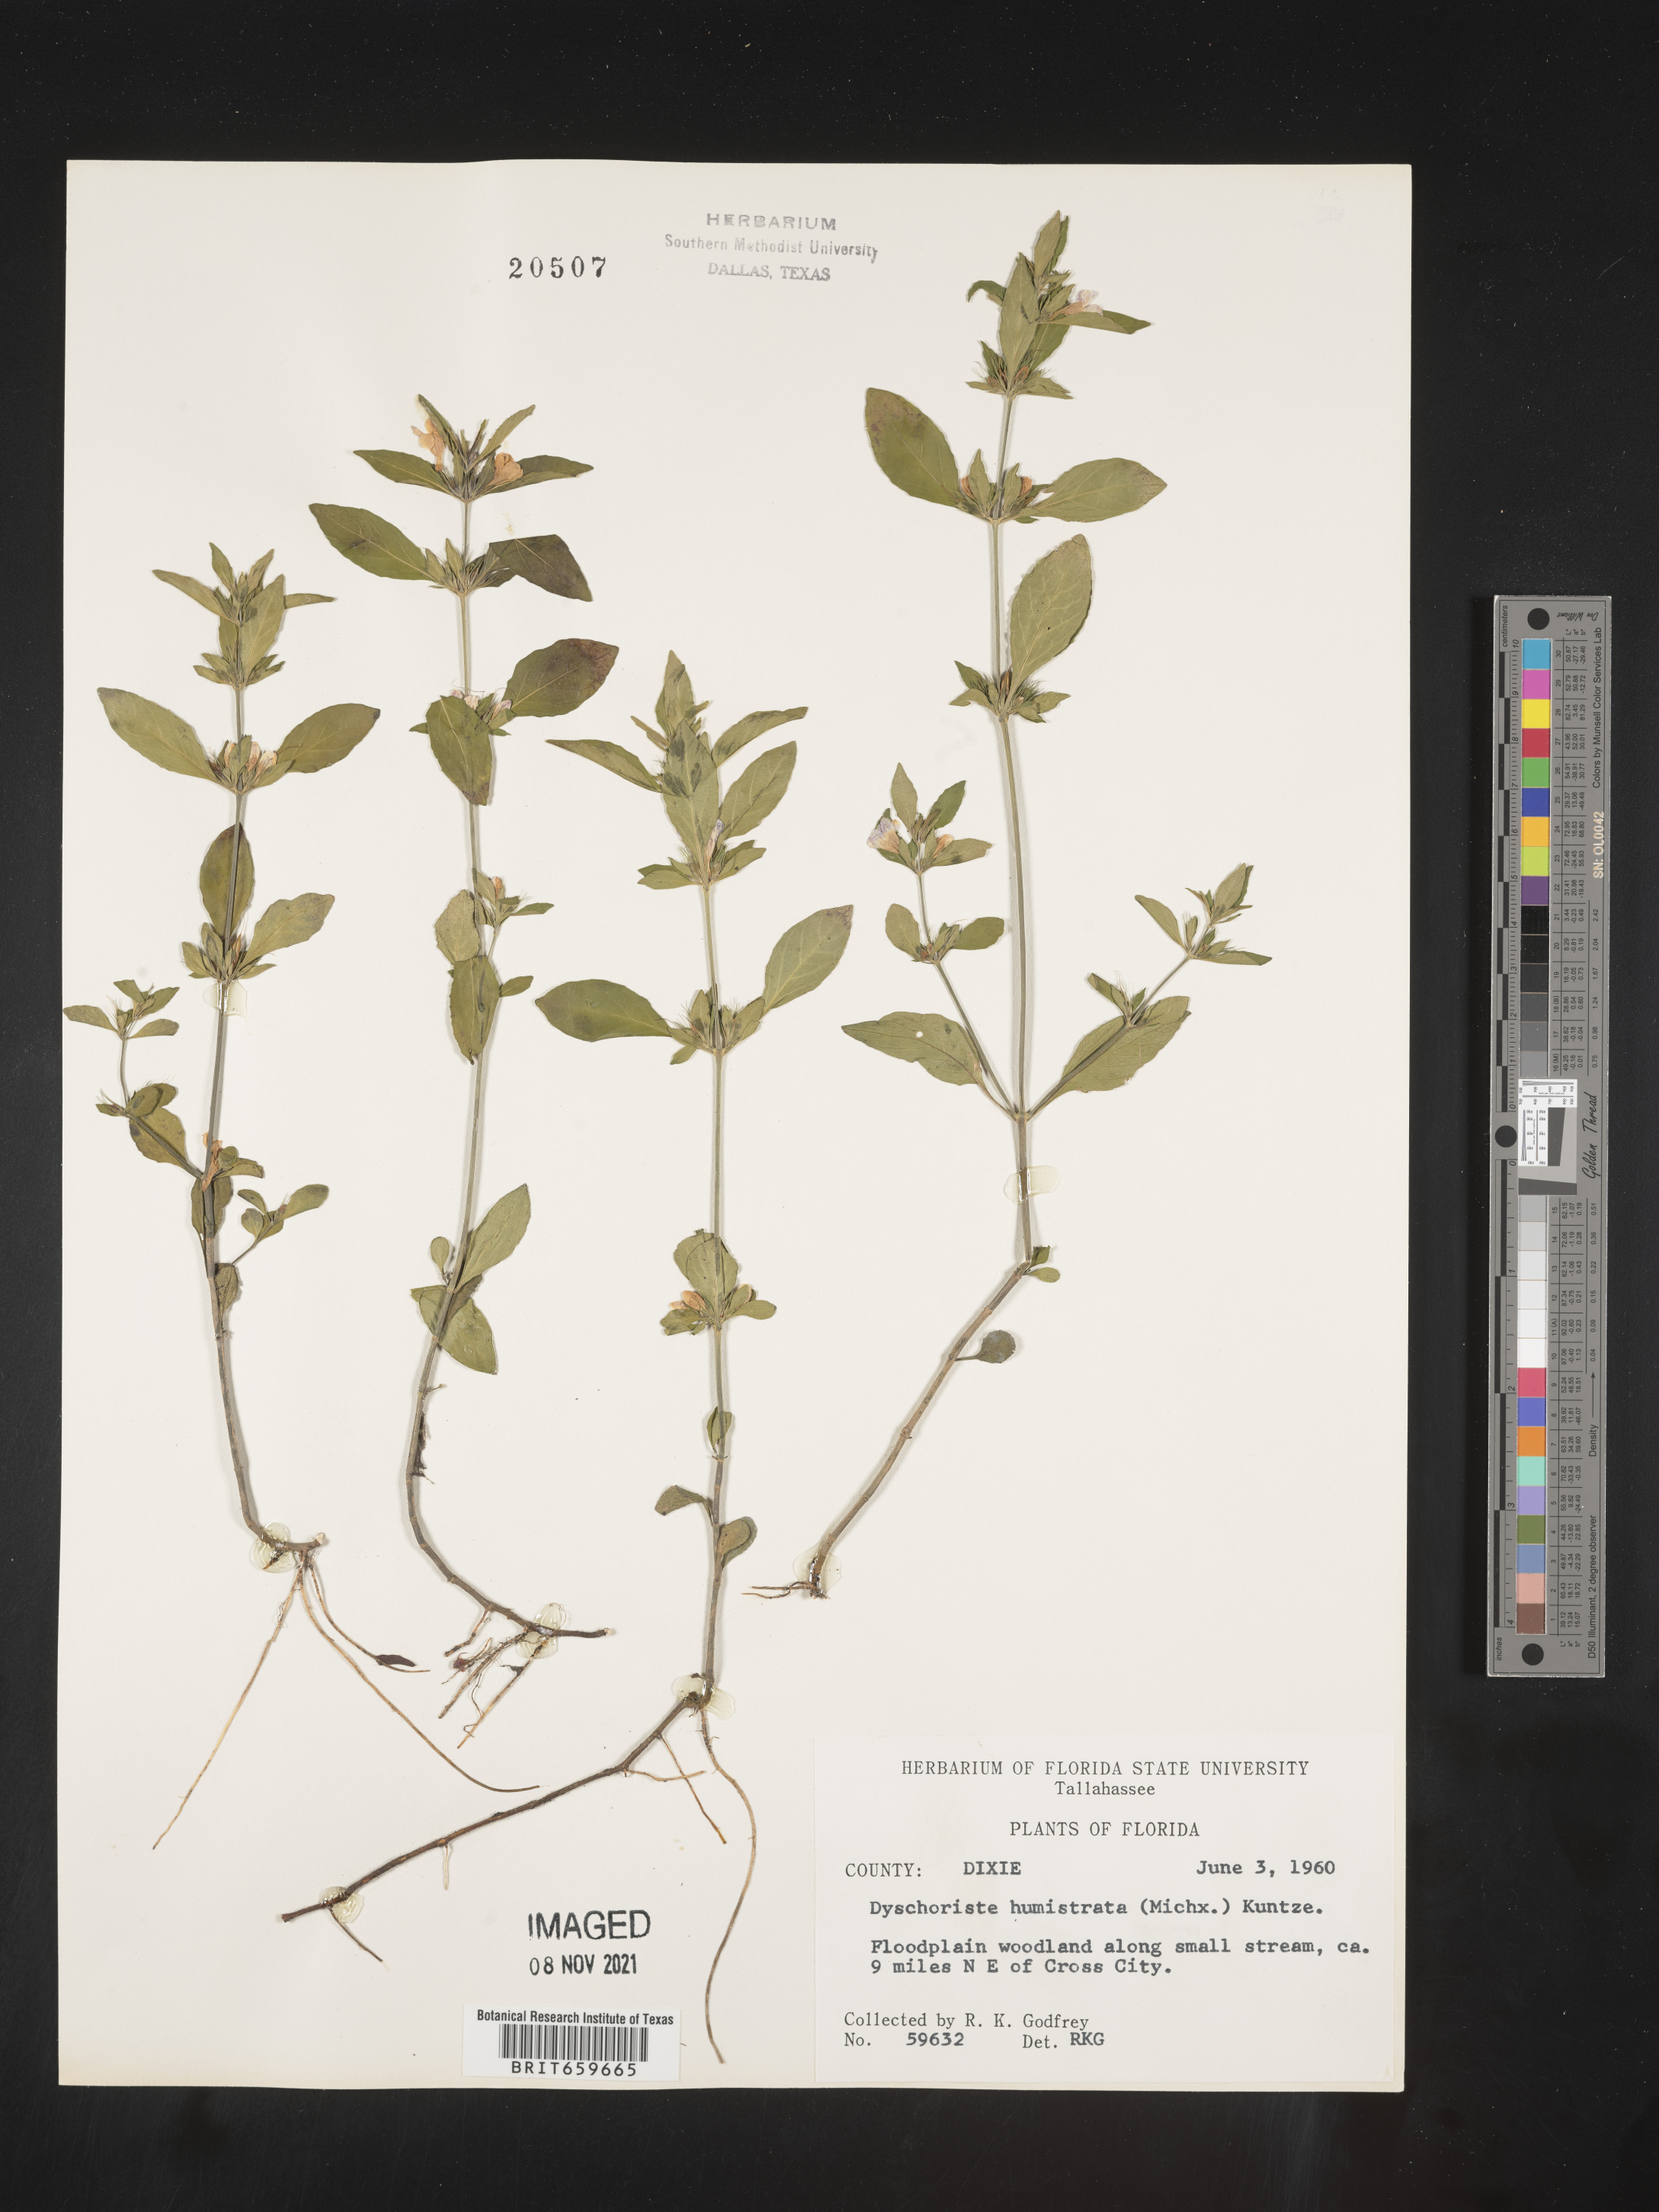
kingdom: Plantae
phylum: Tracheophyta
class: Magnoliopsida
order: Lamiales
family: Acanthaceae
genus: Dyschoriste
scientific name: Dyschoriste
